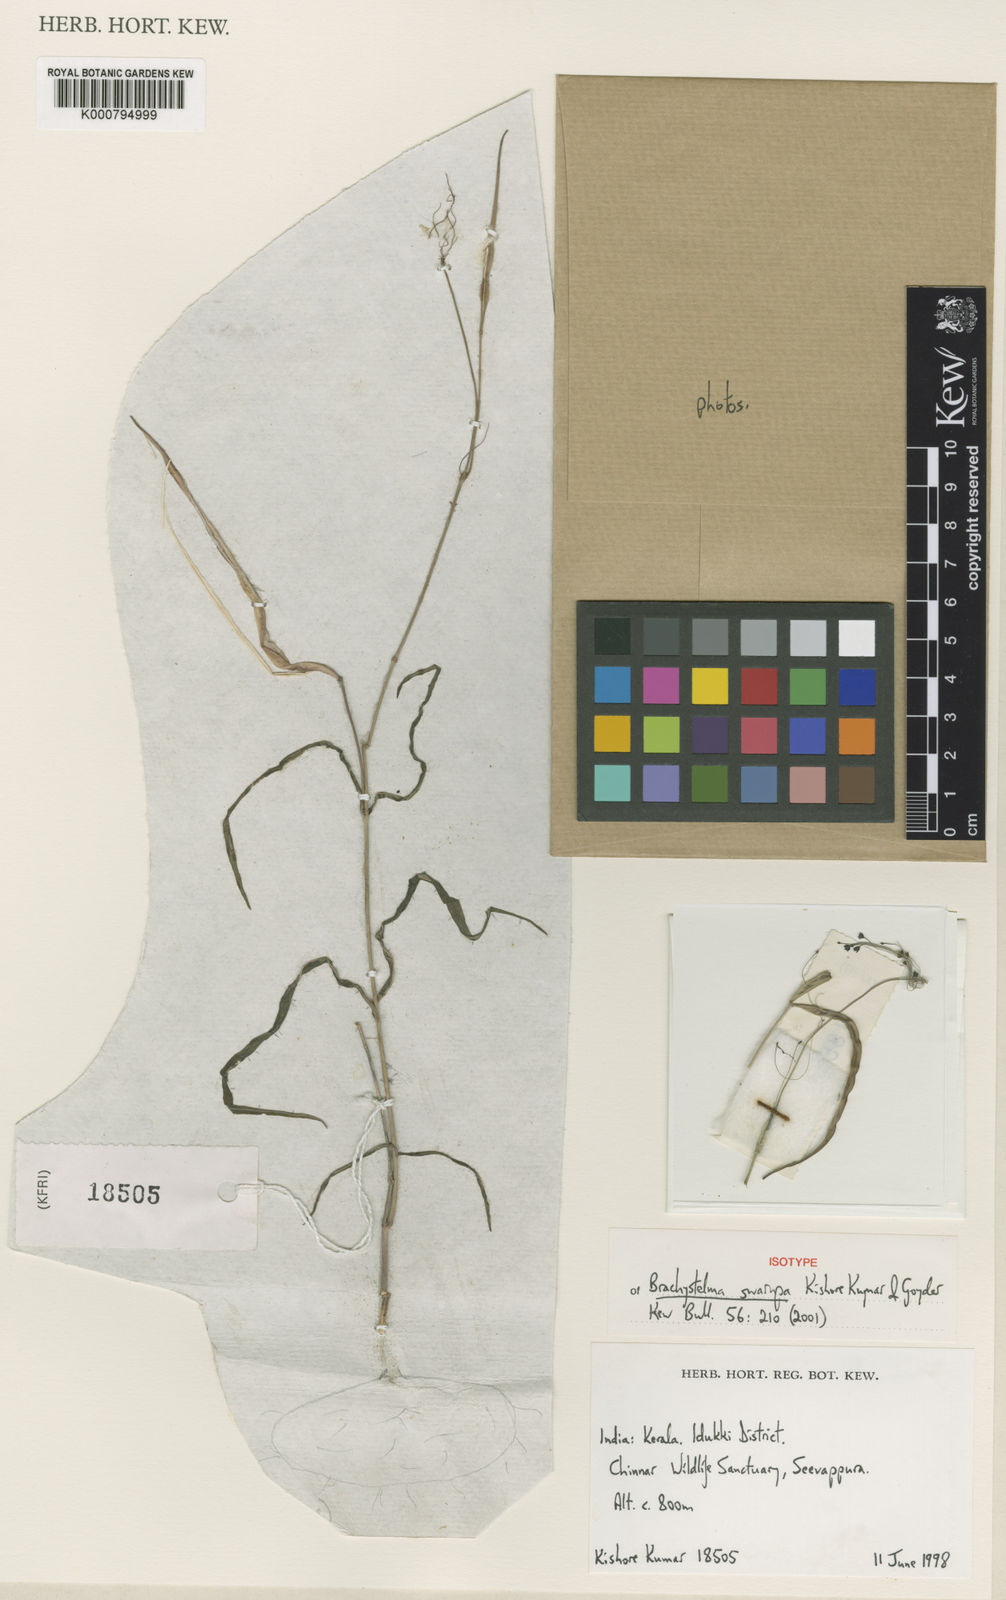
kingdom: Plantae
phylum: Tracheophyta
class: Magnoliopsida
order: Gentianales
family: Apocynaceae
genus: Ceropegia
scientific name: Ceropegia swarupa
